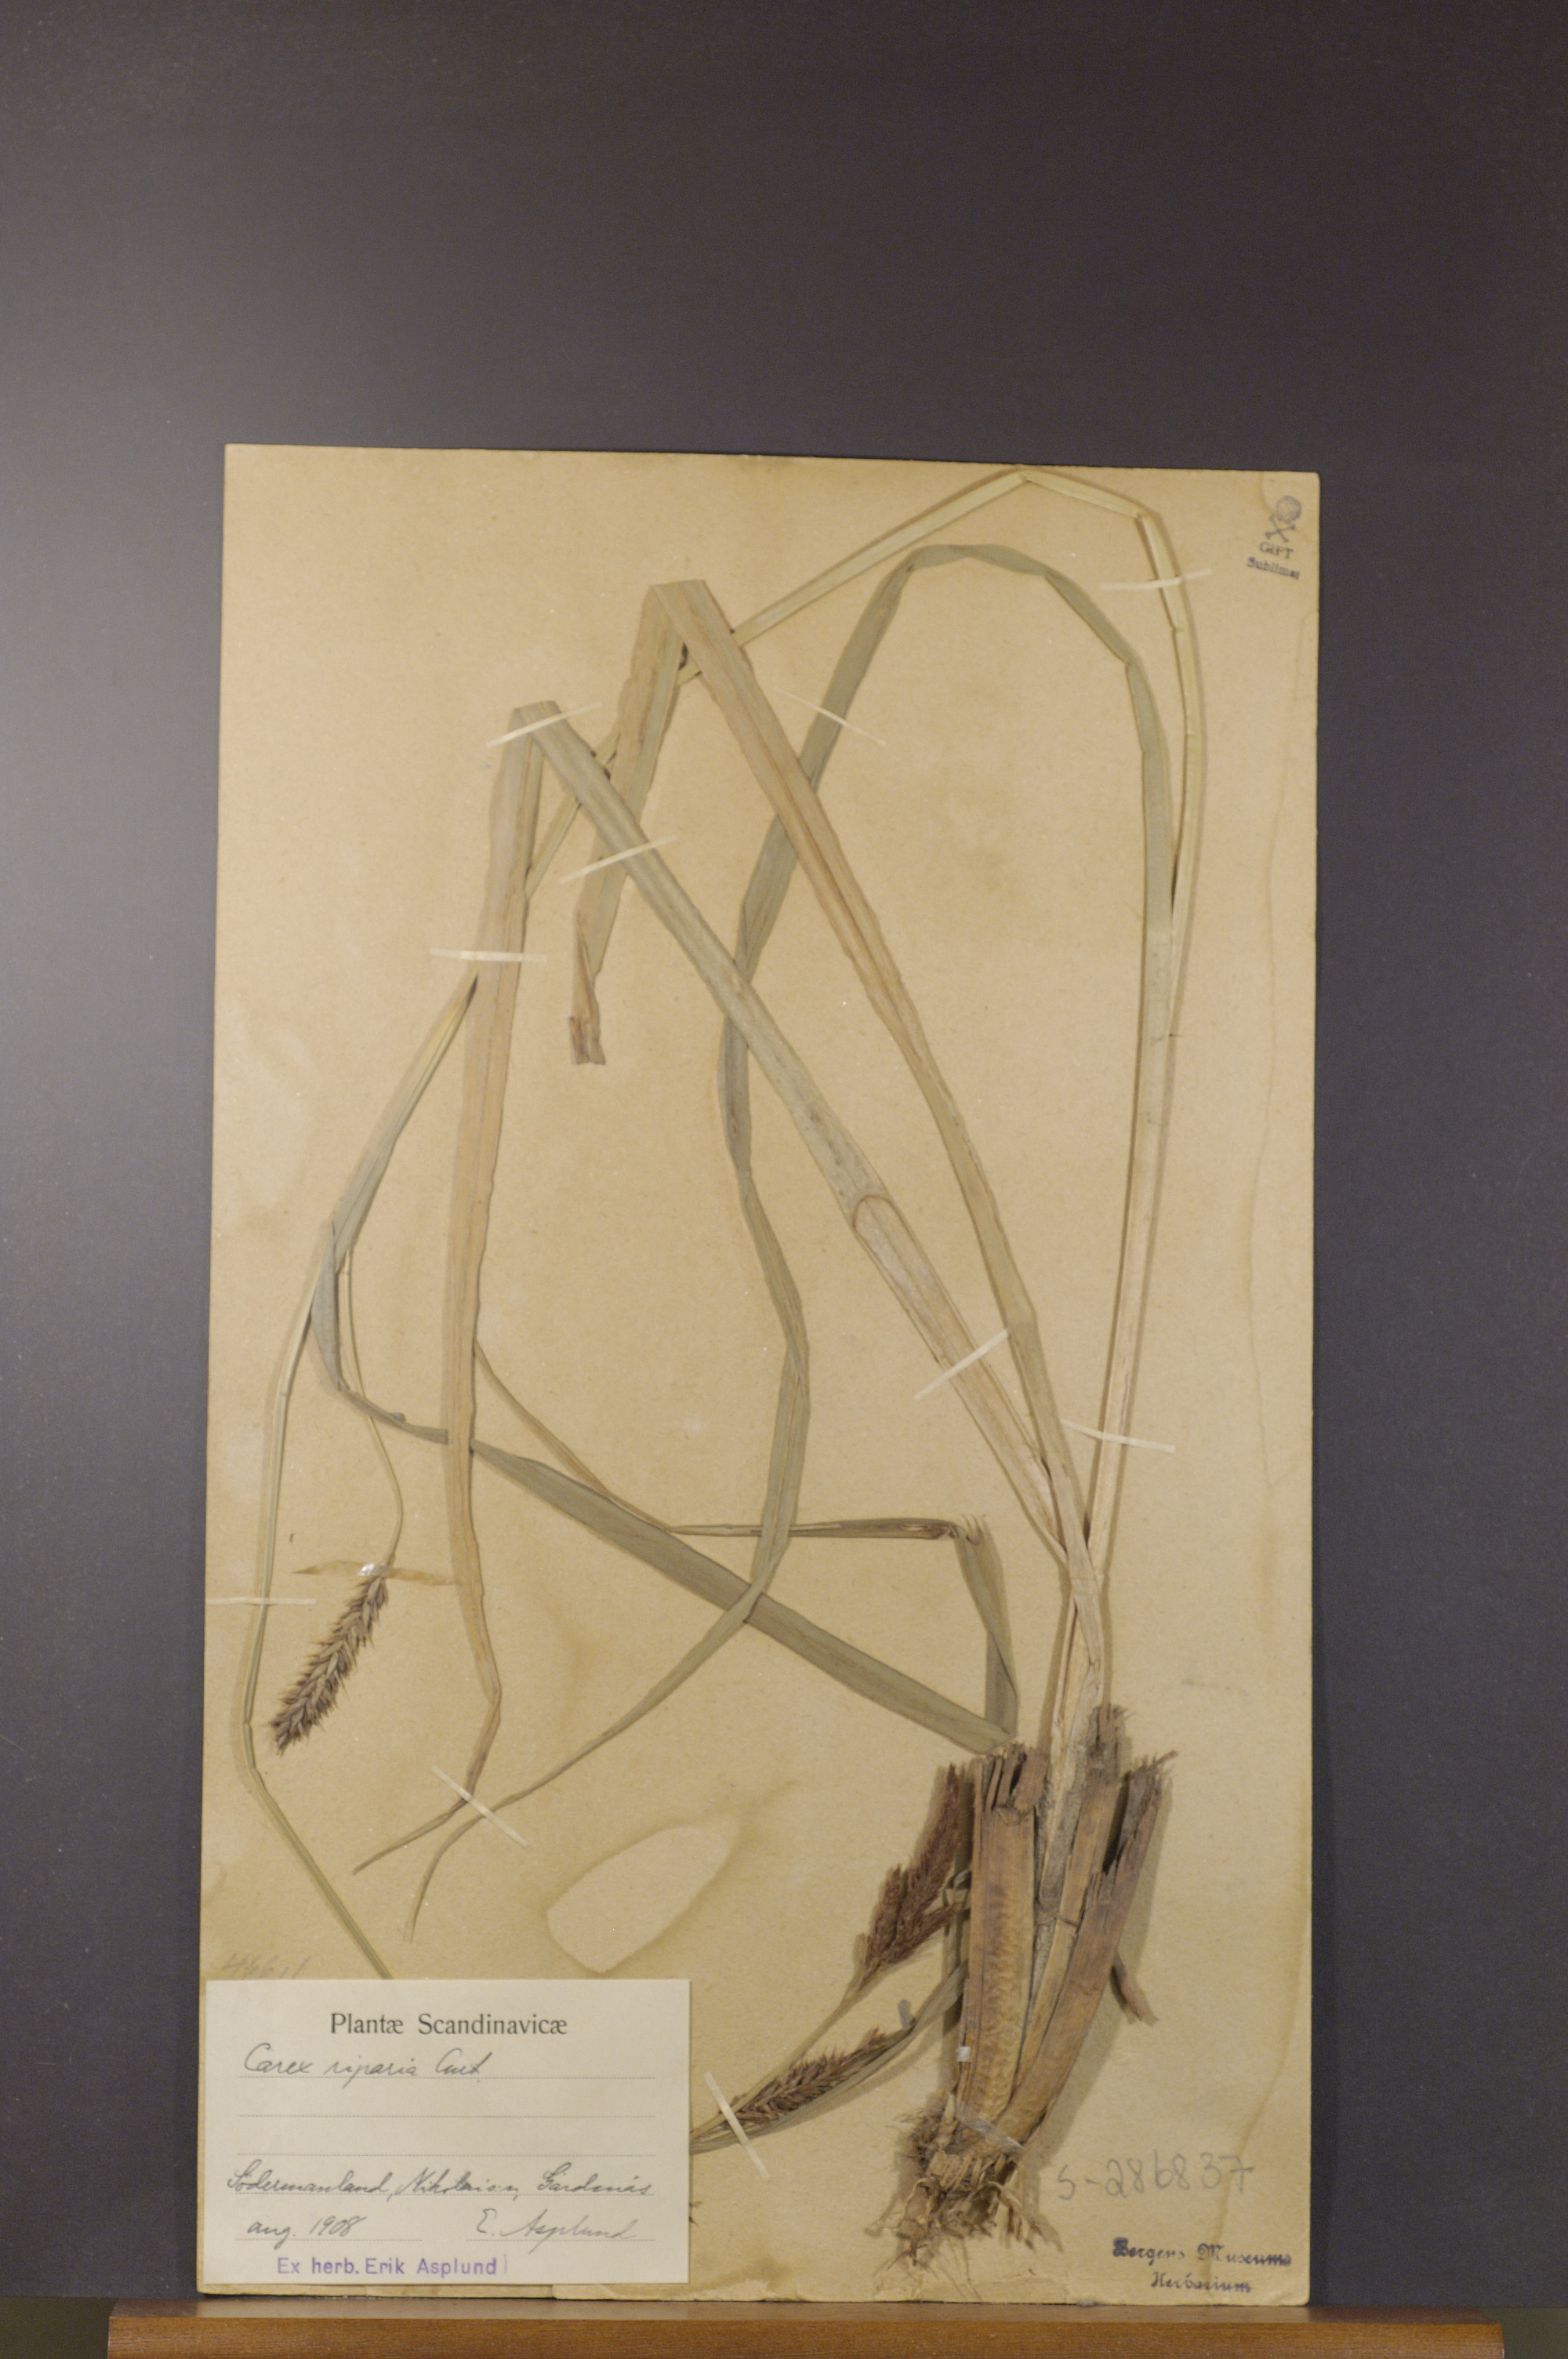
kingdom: Plantae
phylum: Tracheophyta
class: Liliopsida
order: Poales
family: Cyperaceae
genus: Carex
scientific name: Carex riparia
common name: Greater pond-sedge
